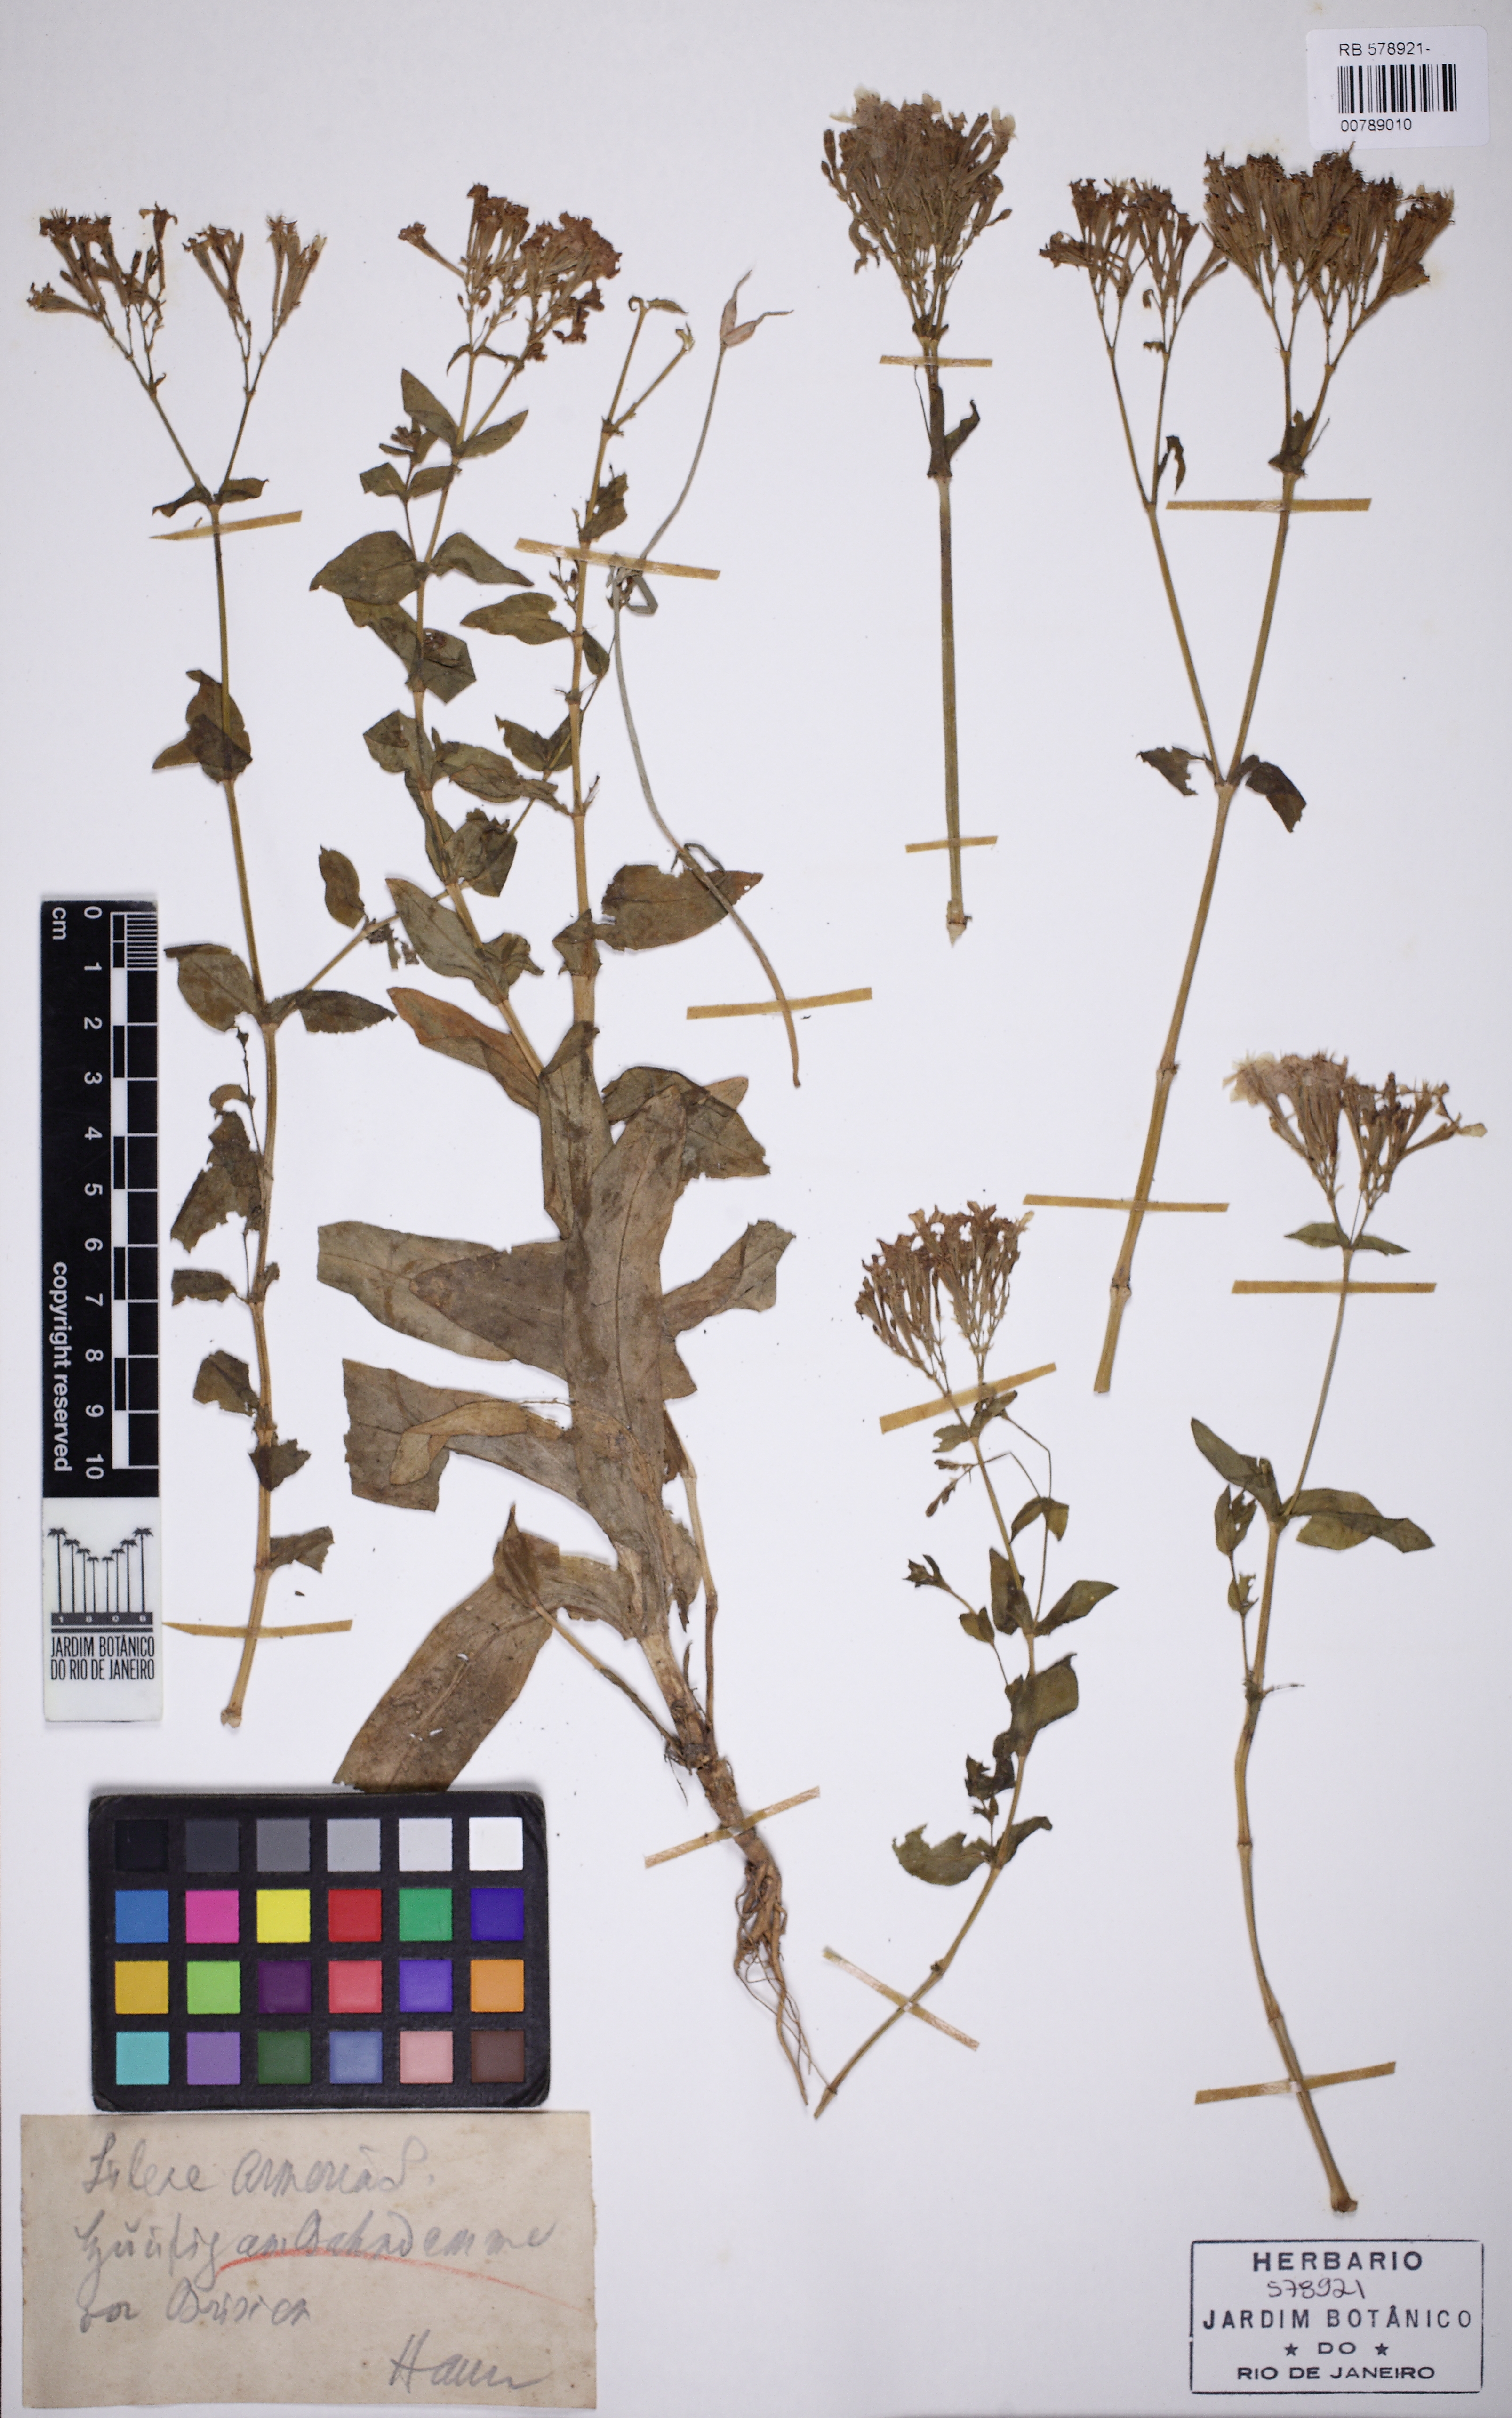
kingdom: Plantae
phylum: Tracheophyta
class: Magnoliopsida
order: Caryophyllales
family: Caryophyllaceae
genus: Atocion
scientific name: Atocion armeria
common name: Sweet william catchfly
